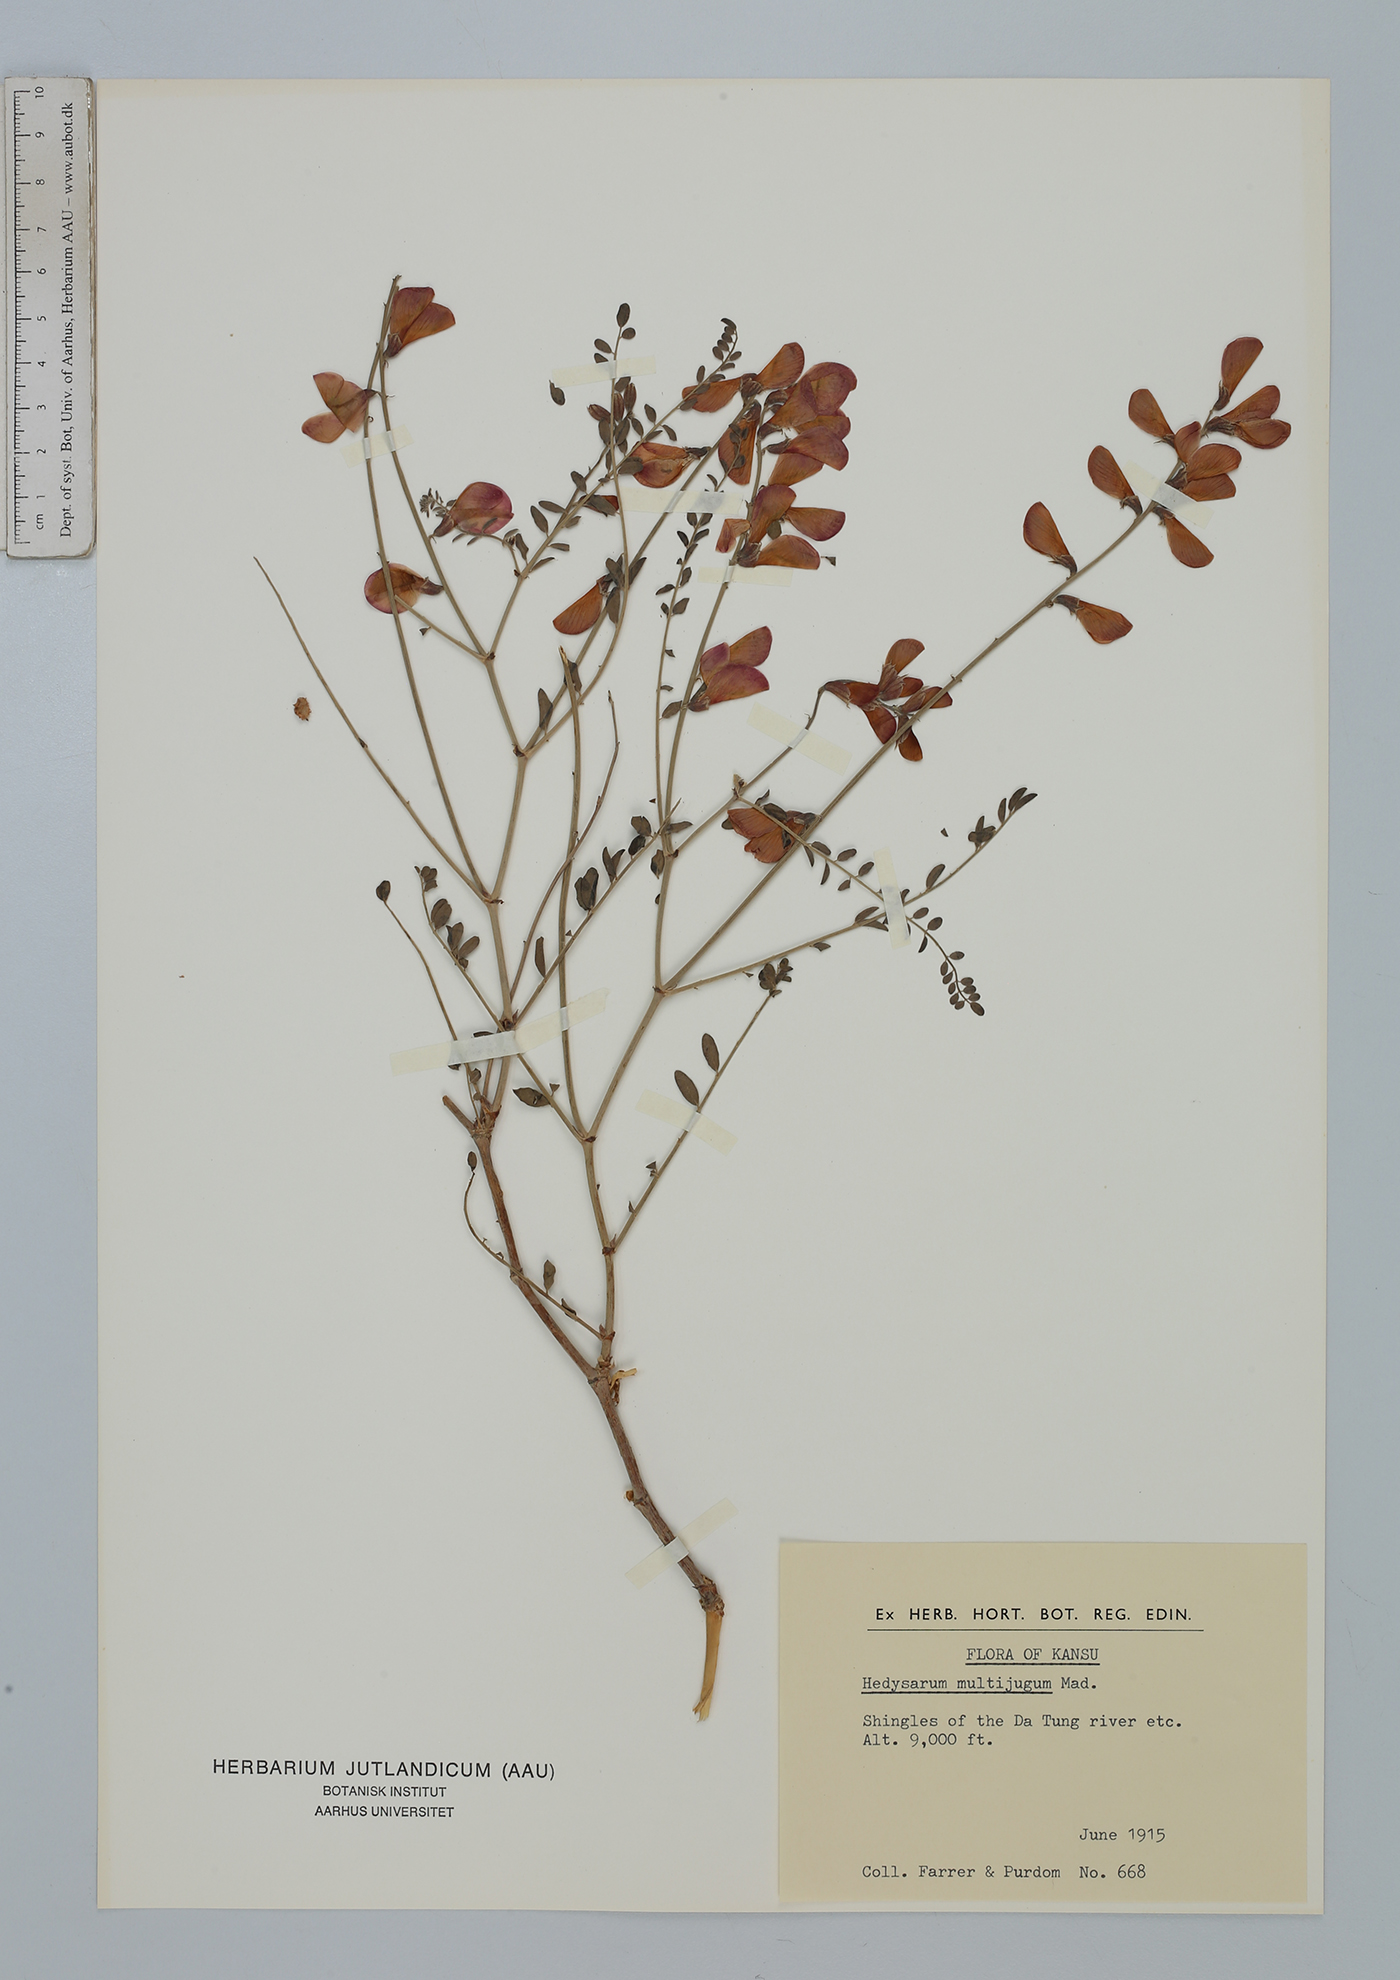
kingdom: Plantae
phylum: Tracheophyta
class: Magnoliopsida
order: Fabales
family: Fabaceae
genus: Corethrodendron
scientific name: Corethrodendron multijugum
